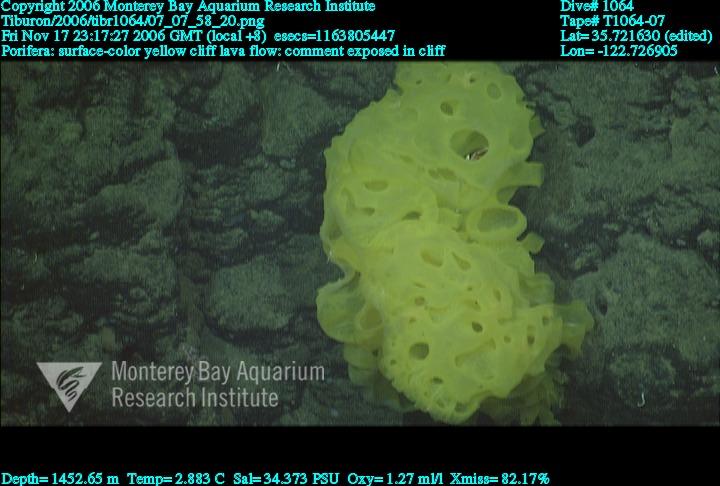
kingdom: Animalia
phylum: Porifera
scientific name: Porifera
